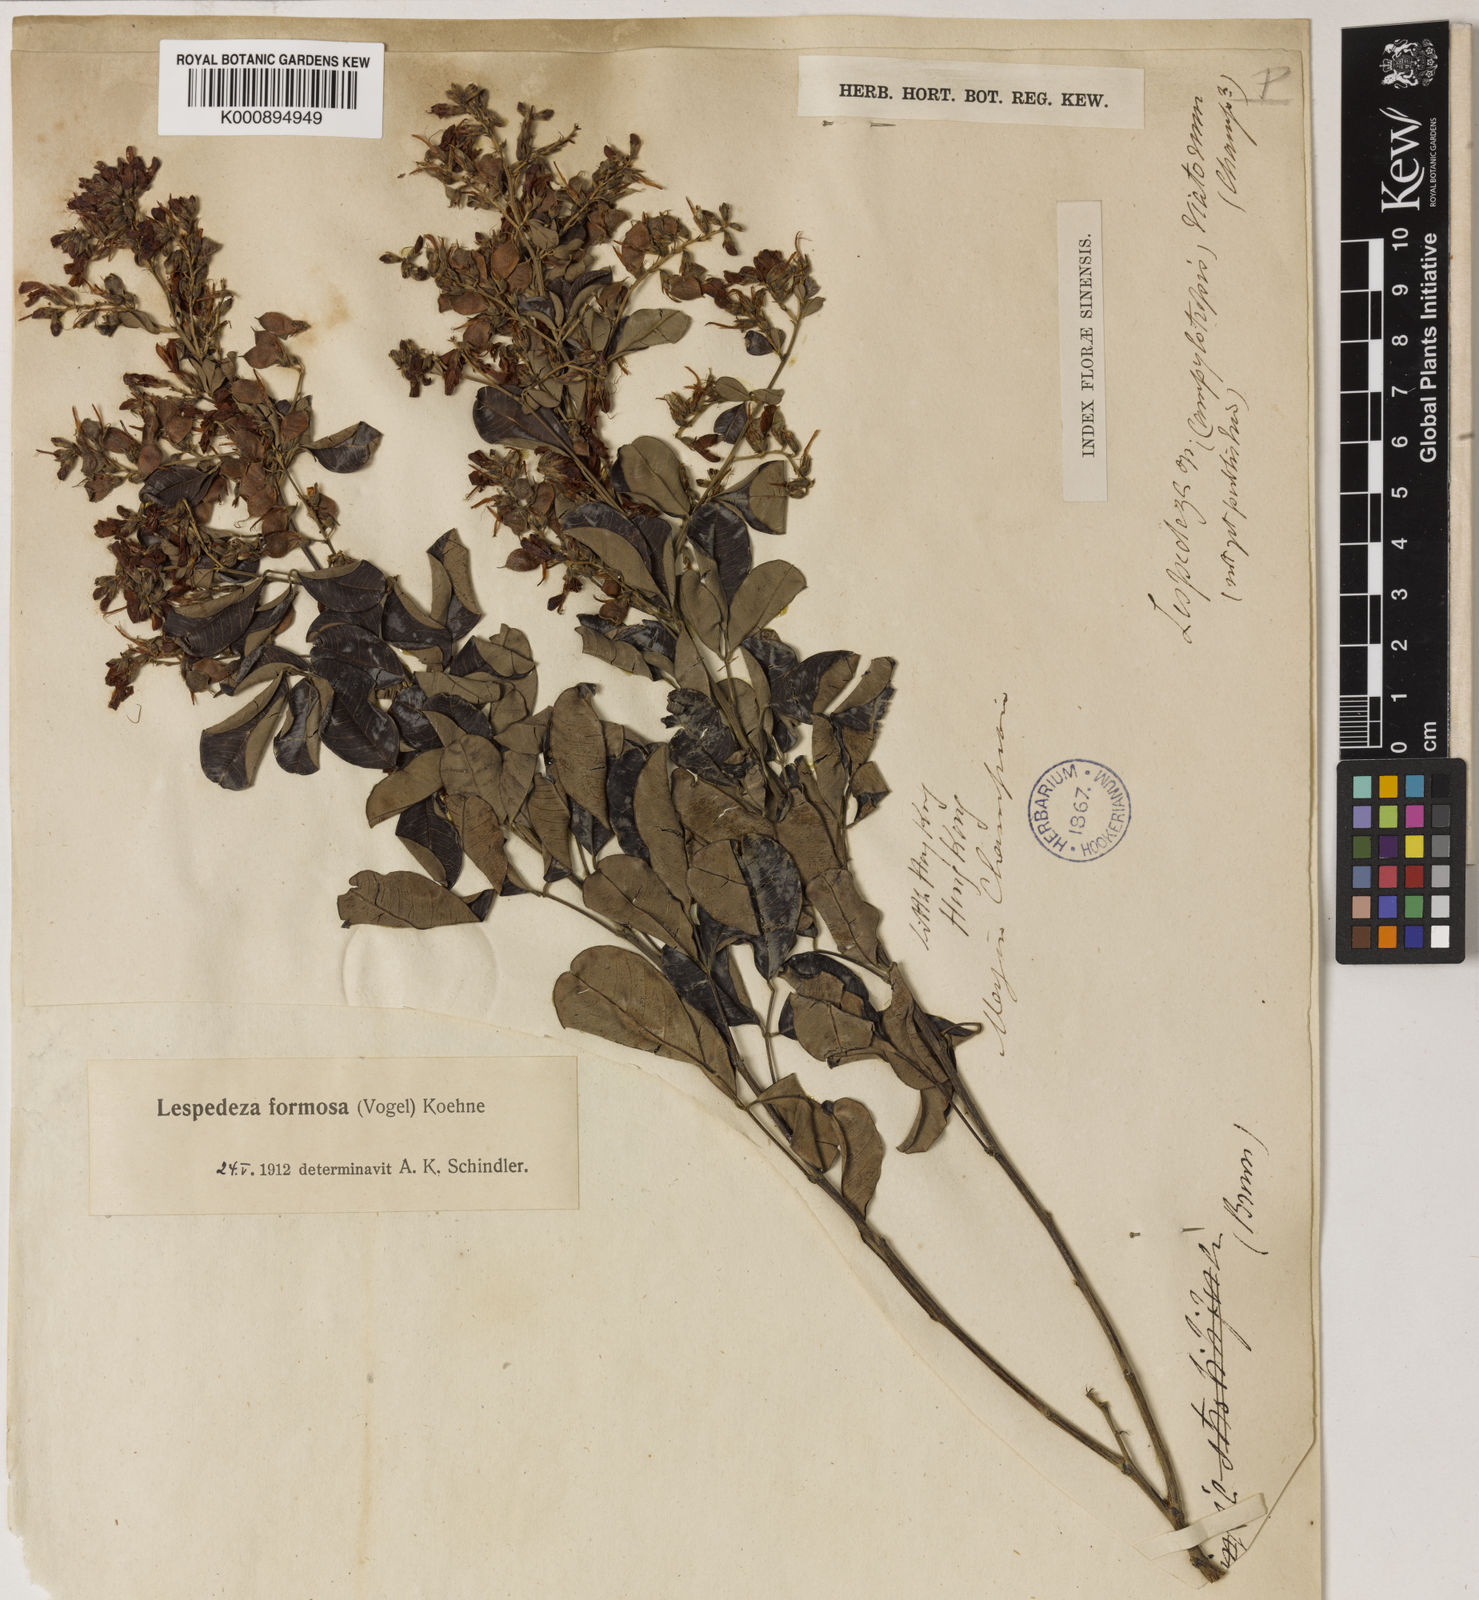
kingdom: Plantae
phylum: Tracheophyta
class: Magnoliopsida
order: Fabales
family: Fabaceae
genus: Lespedeza
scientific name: Lespedeza thunbergii
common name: Thunberg's lespedeza
